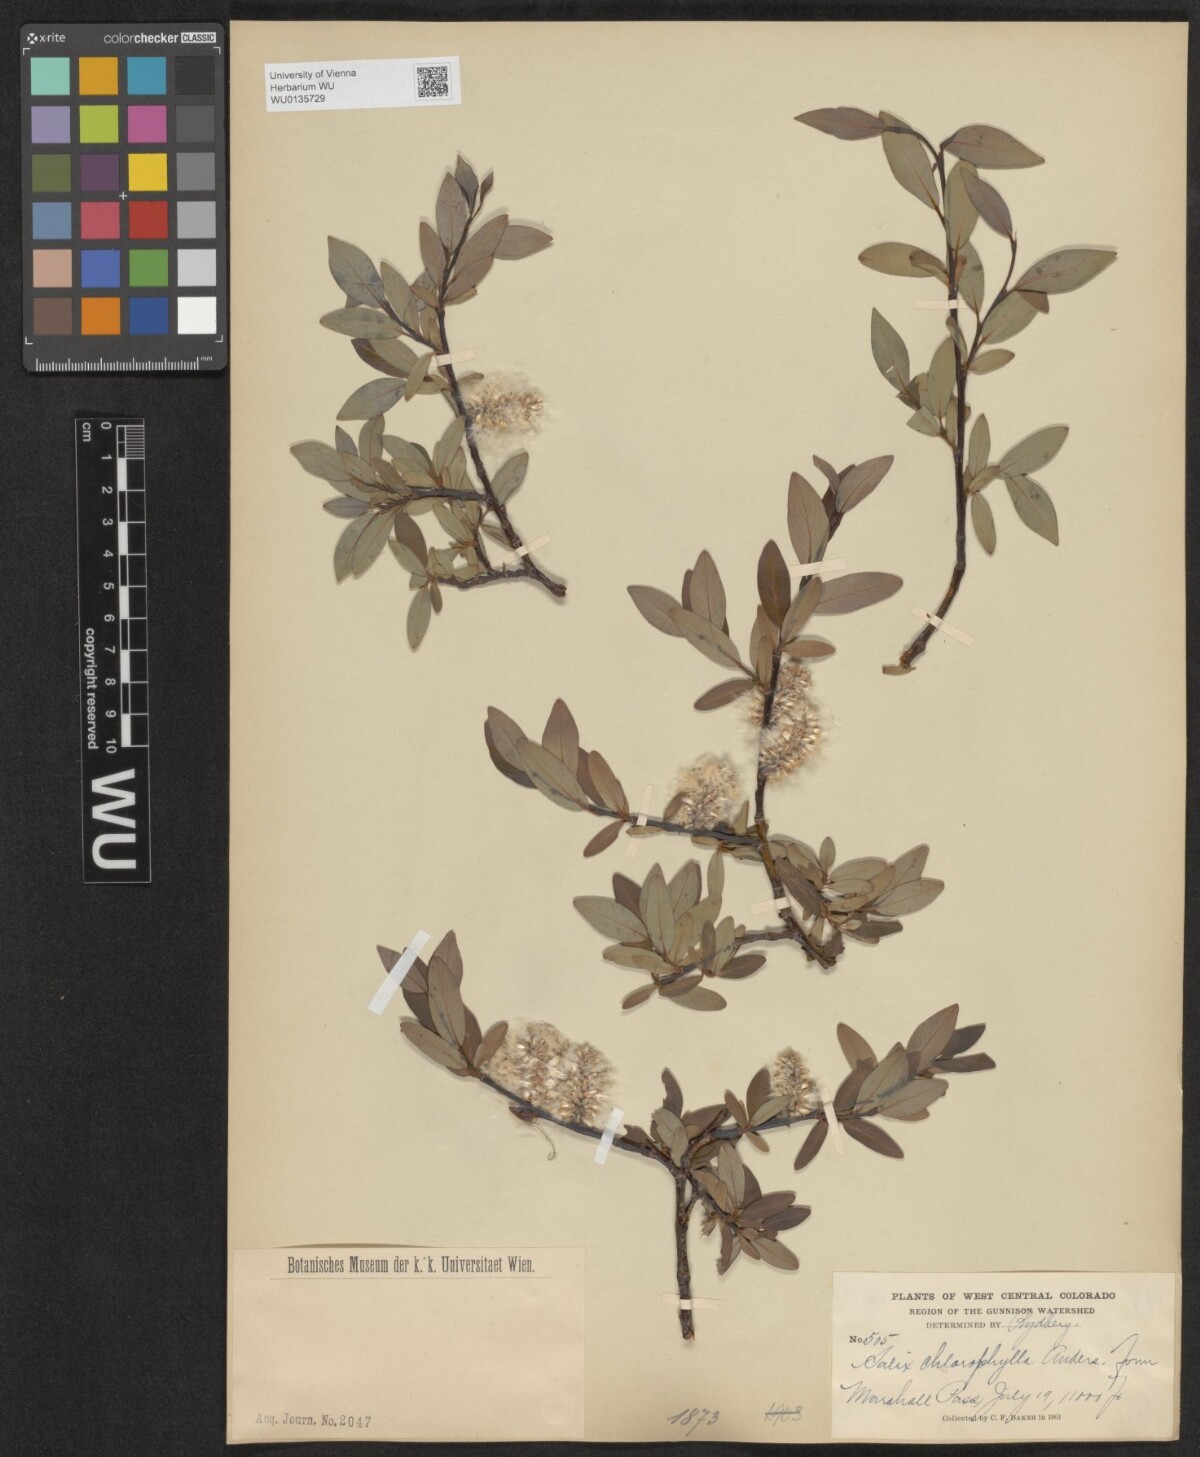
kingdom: Plantae
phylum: Tracheophyta
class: Magnoliopsida
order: Malpighiales
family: Salicaceae
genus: Salix
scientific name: Salix planifolia
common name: Mountain willow
